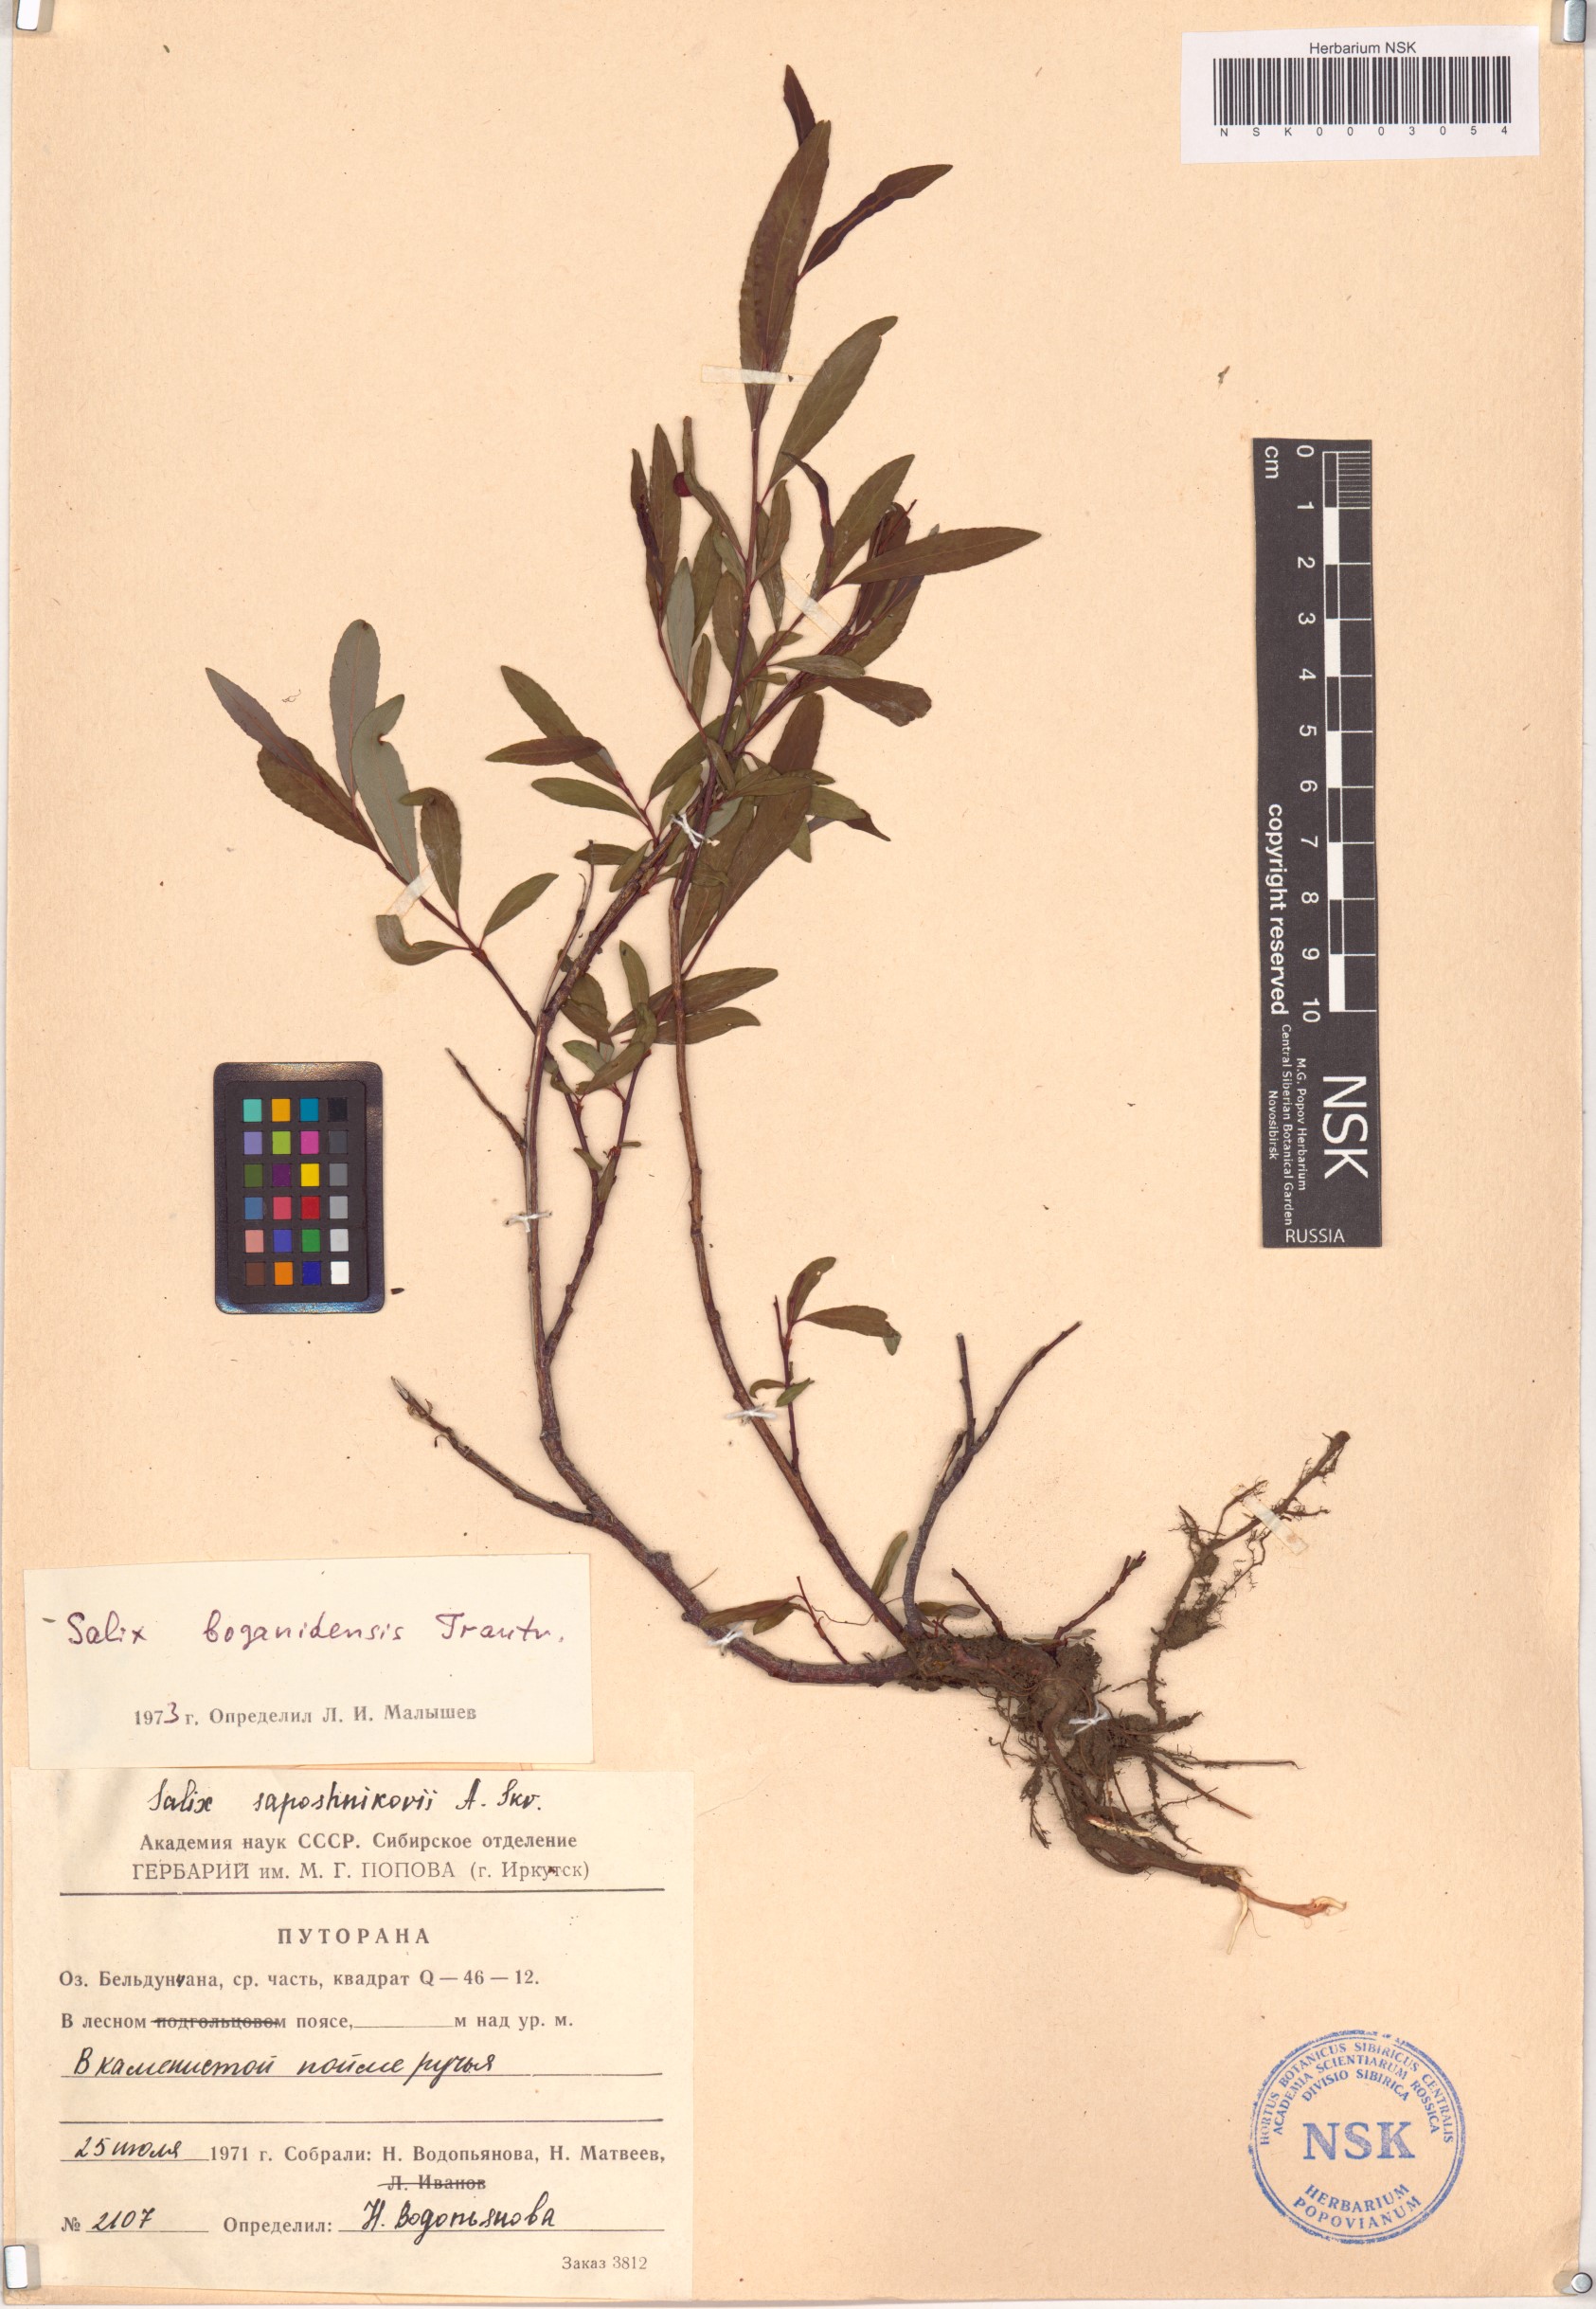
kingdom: Plantae
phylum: Tracheophyta
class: Magnoliopsida
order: Malpighiales
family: Salicaceae
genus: Salix
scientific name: Salix boganidensis
